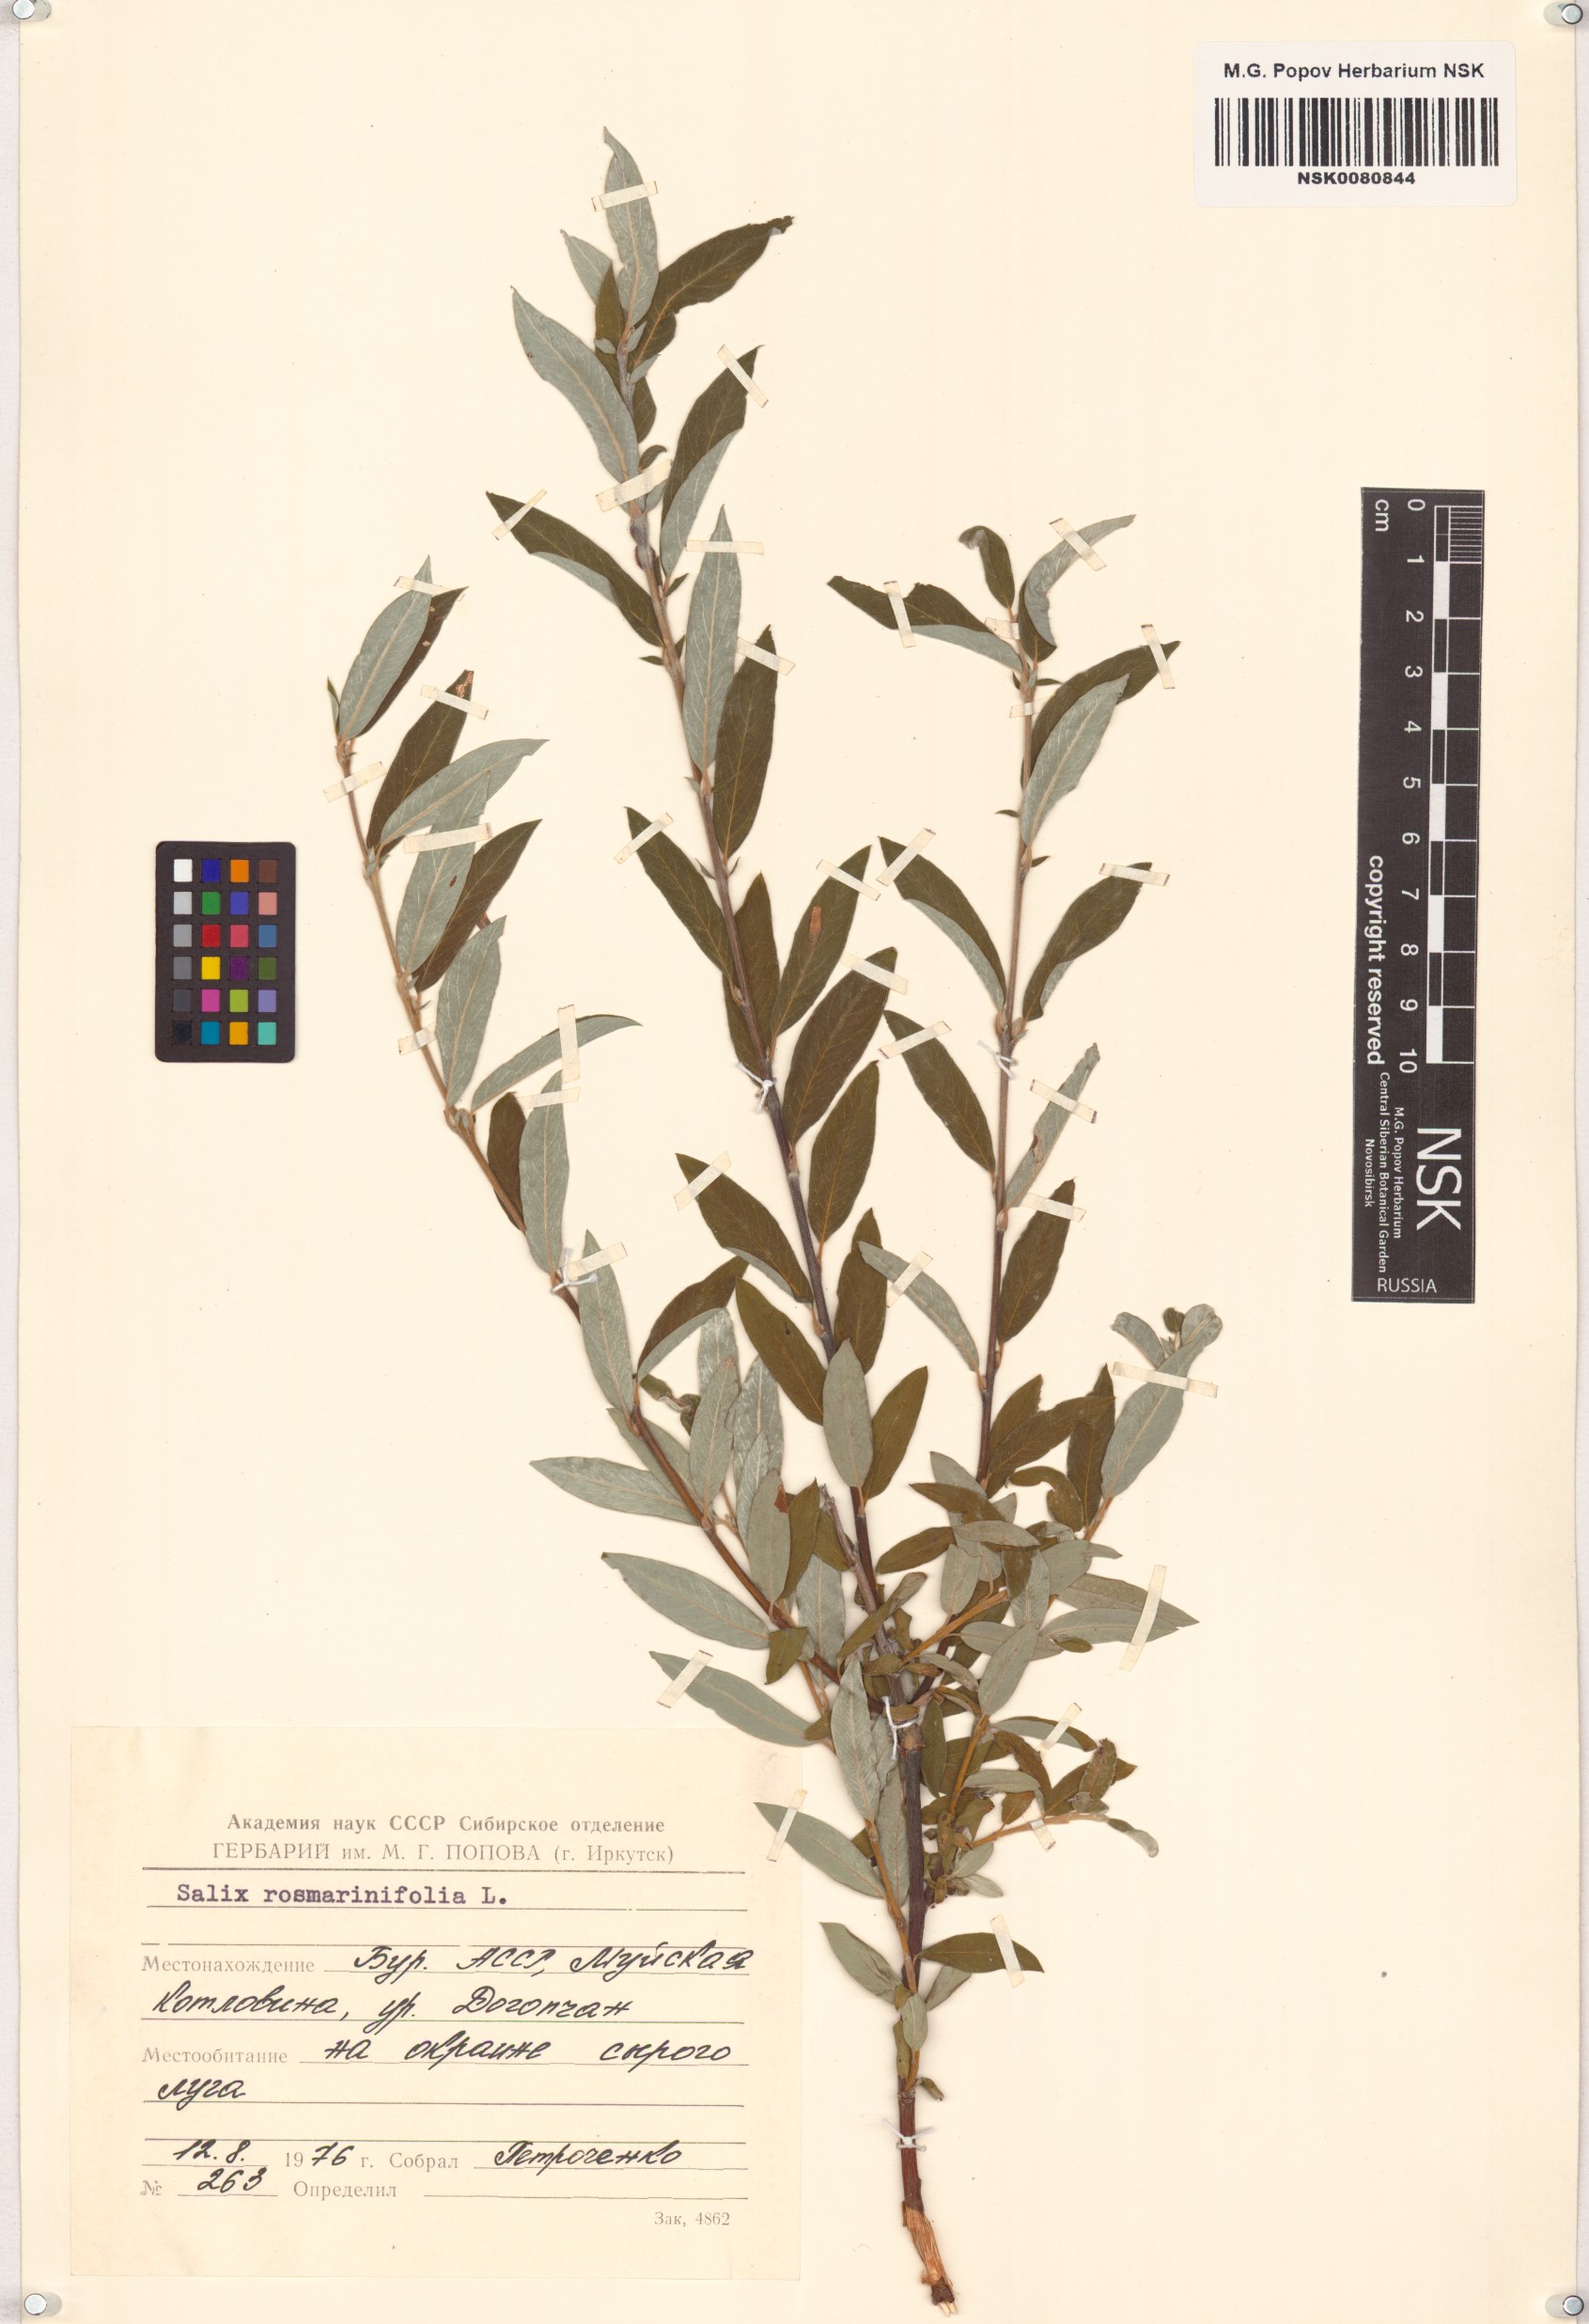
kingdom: Plantae
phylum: Tracheophyta
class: Magnoliopsida
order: Malpighiales
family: Salicaceae
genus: Salix
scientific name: Salix rosmarinifolia
